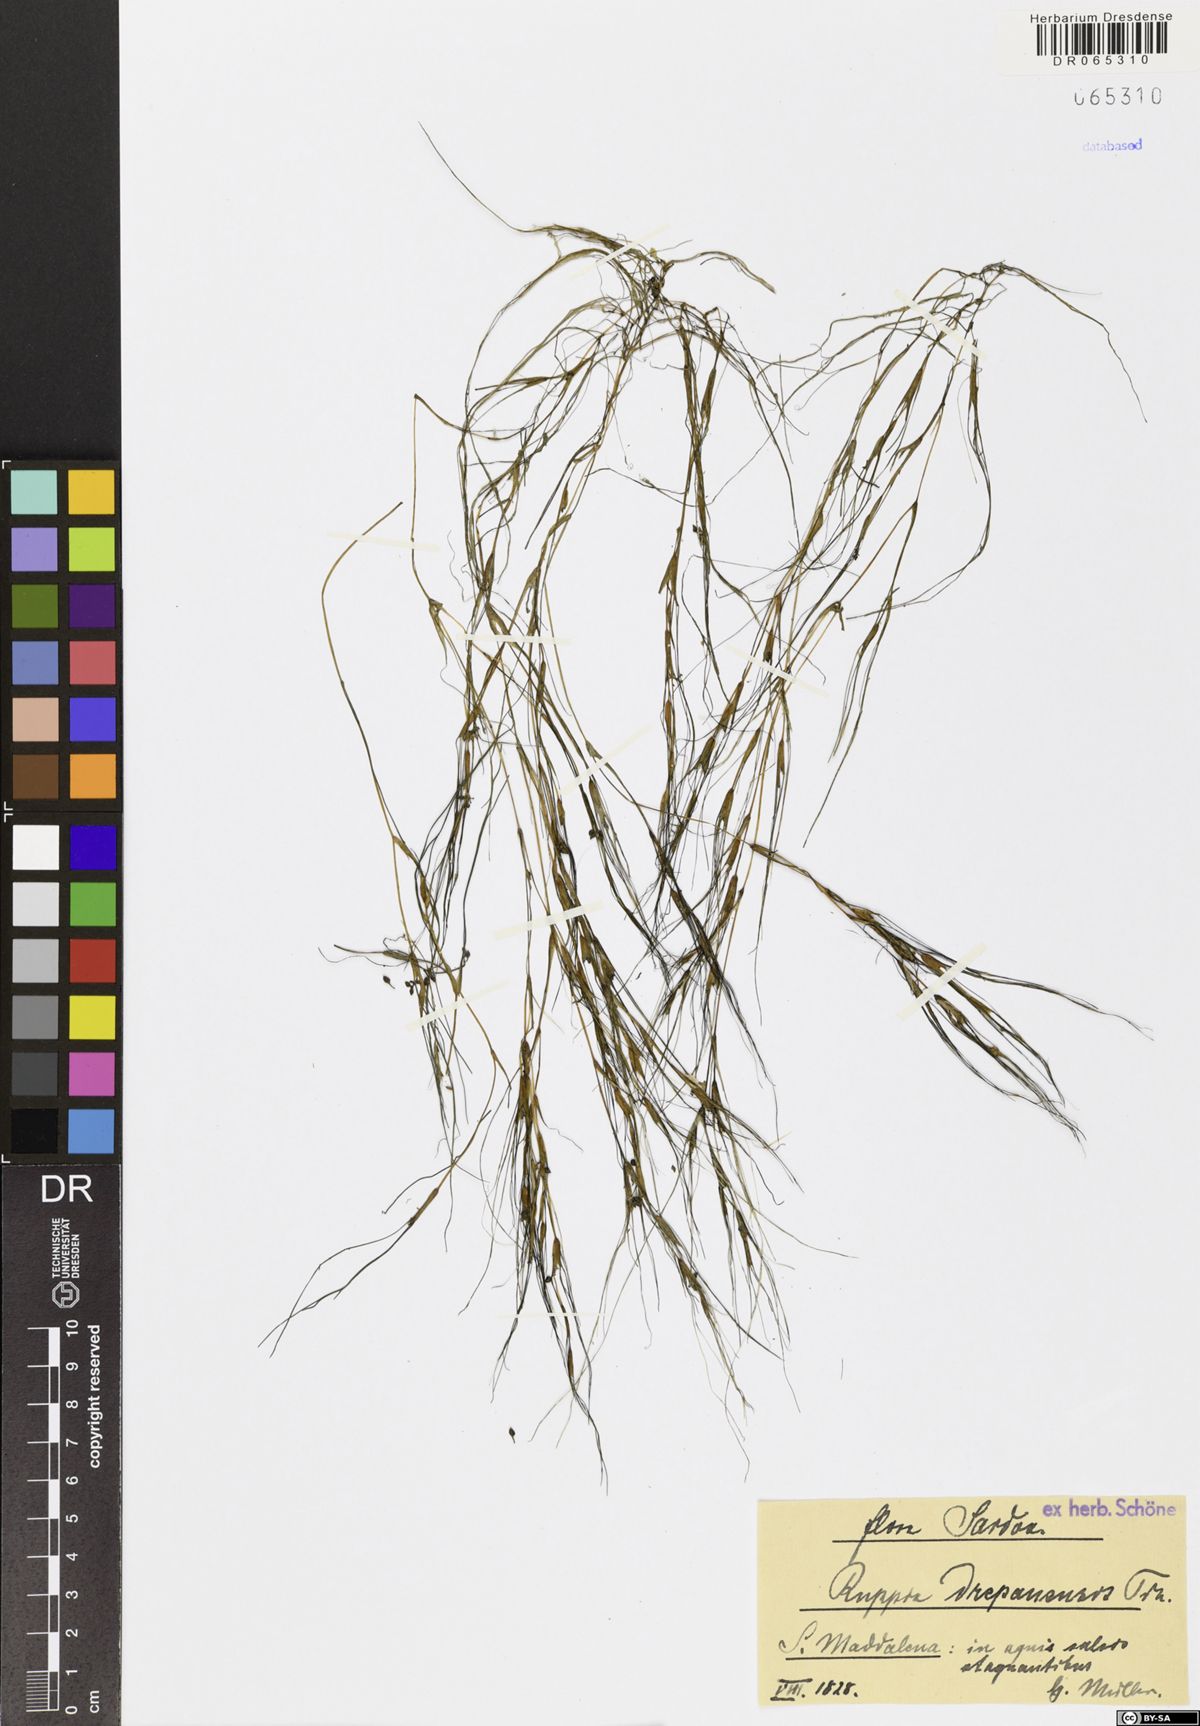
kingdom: Plantae
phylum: Tracheophyta
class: Liliopsida
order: Alismatales
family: Ruppiaceae
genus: Ruppia
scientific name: Ruppia drepanensis
